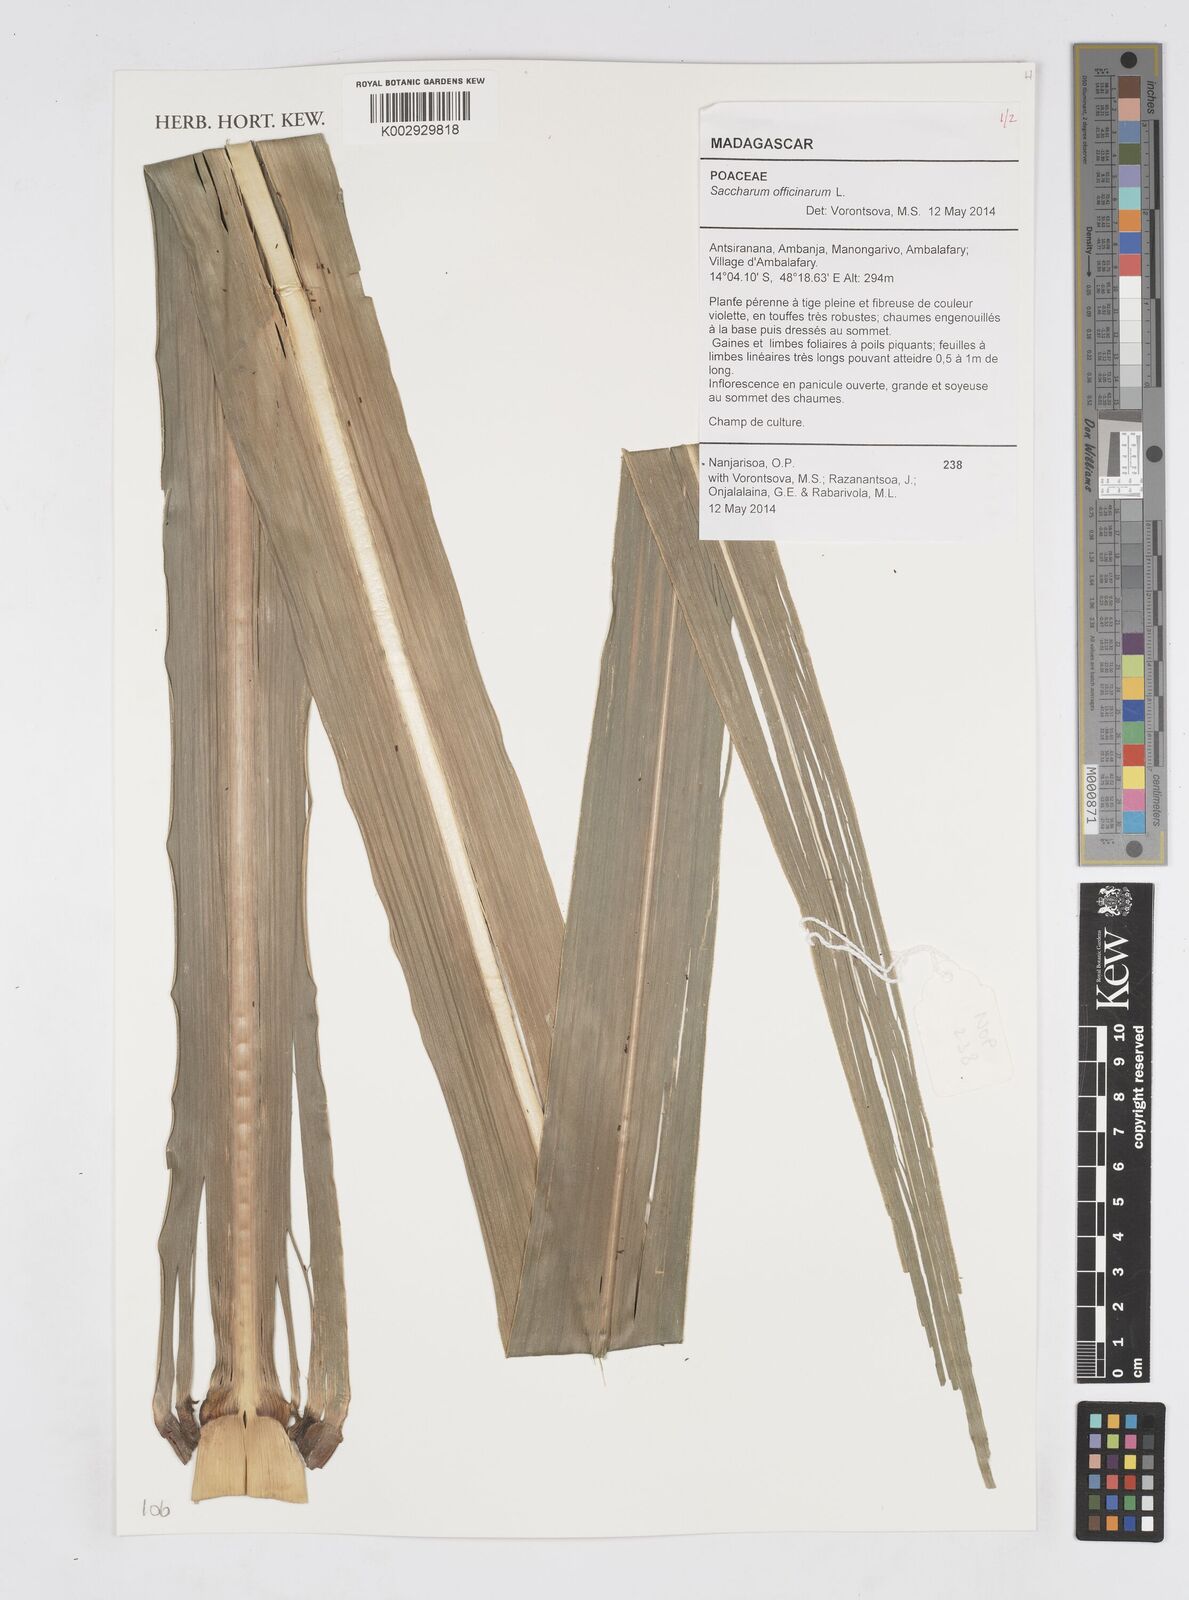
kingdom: Plantae
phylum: Tracheophyta
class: Liliopsida
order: Poales
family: Poaceae
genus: Saccharum
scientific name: Saccharum officinarum
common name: Sugarcane
